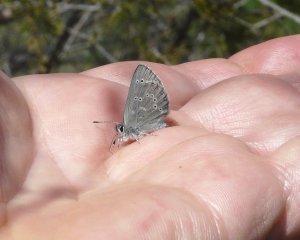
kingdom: Animalia
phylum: Arthropoda
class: Insecta
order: Lepidoptera
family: Lycaenidae
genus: Glaucopsyche
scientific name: Glaucopsyche lygdamus
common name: Silvery Blue
